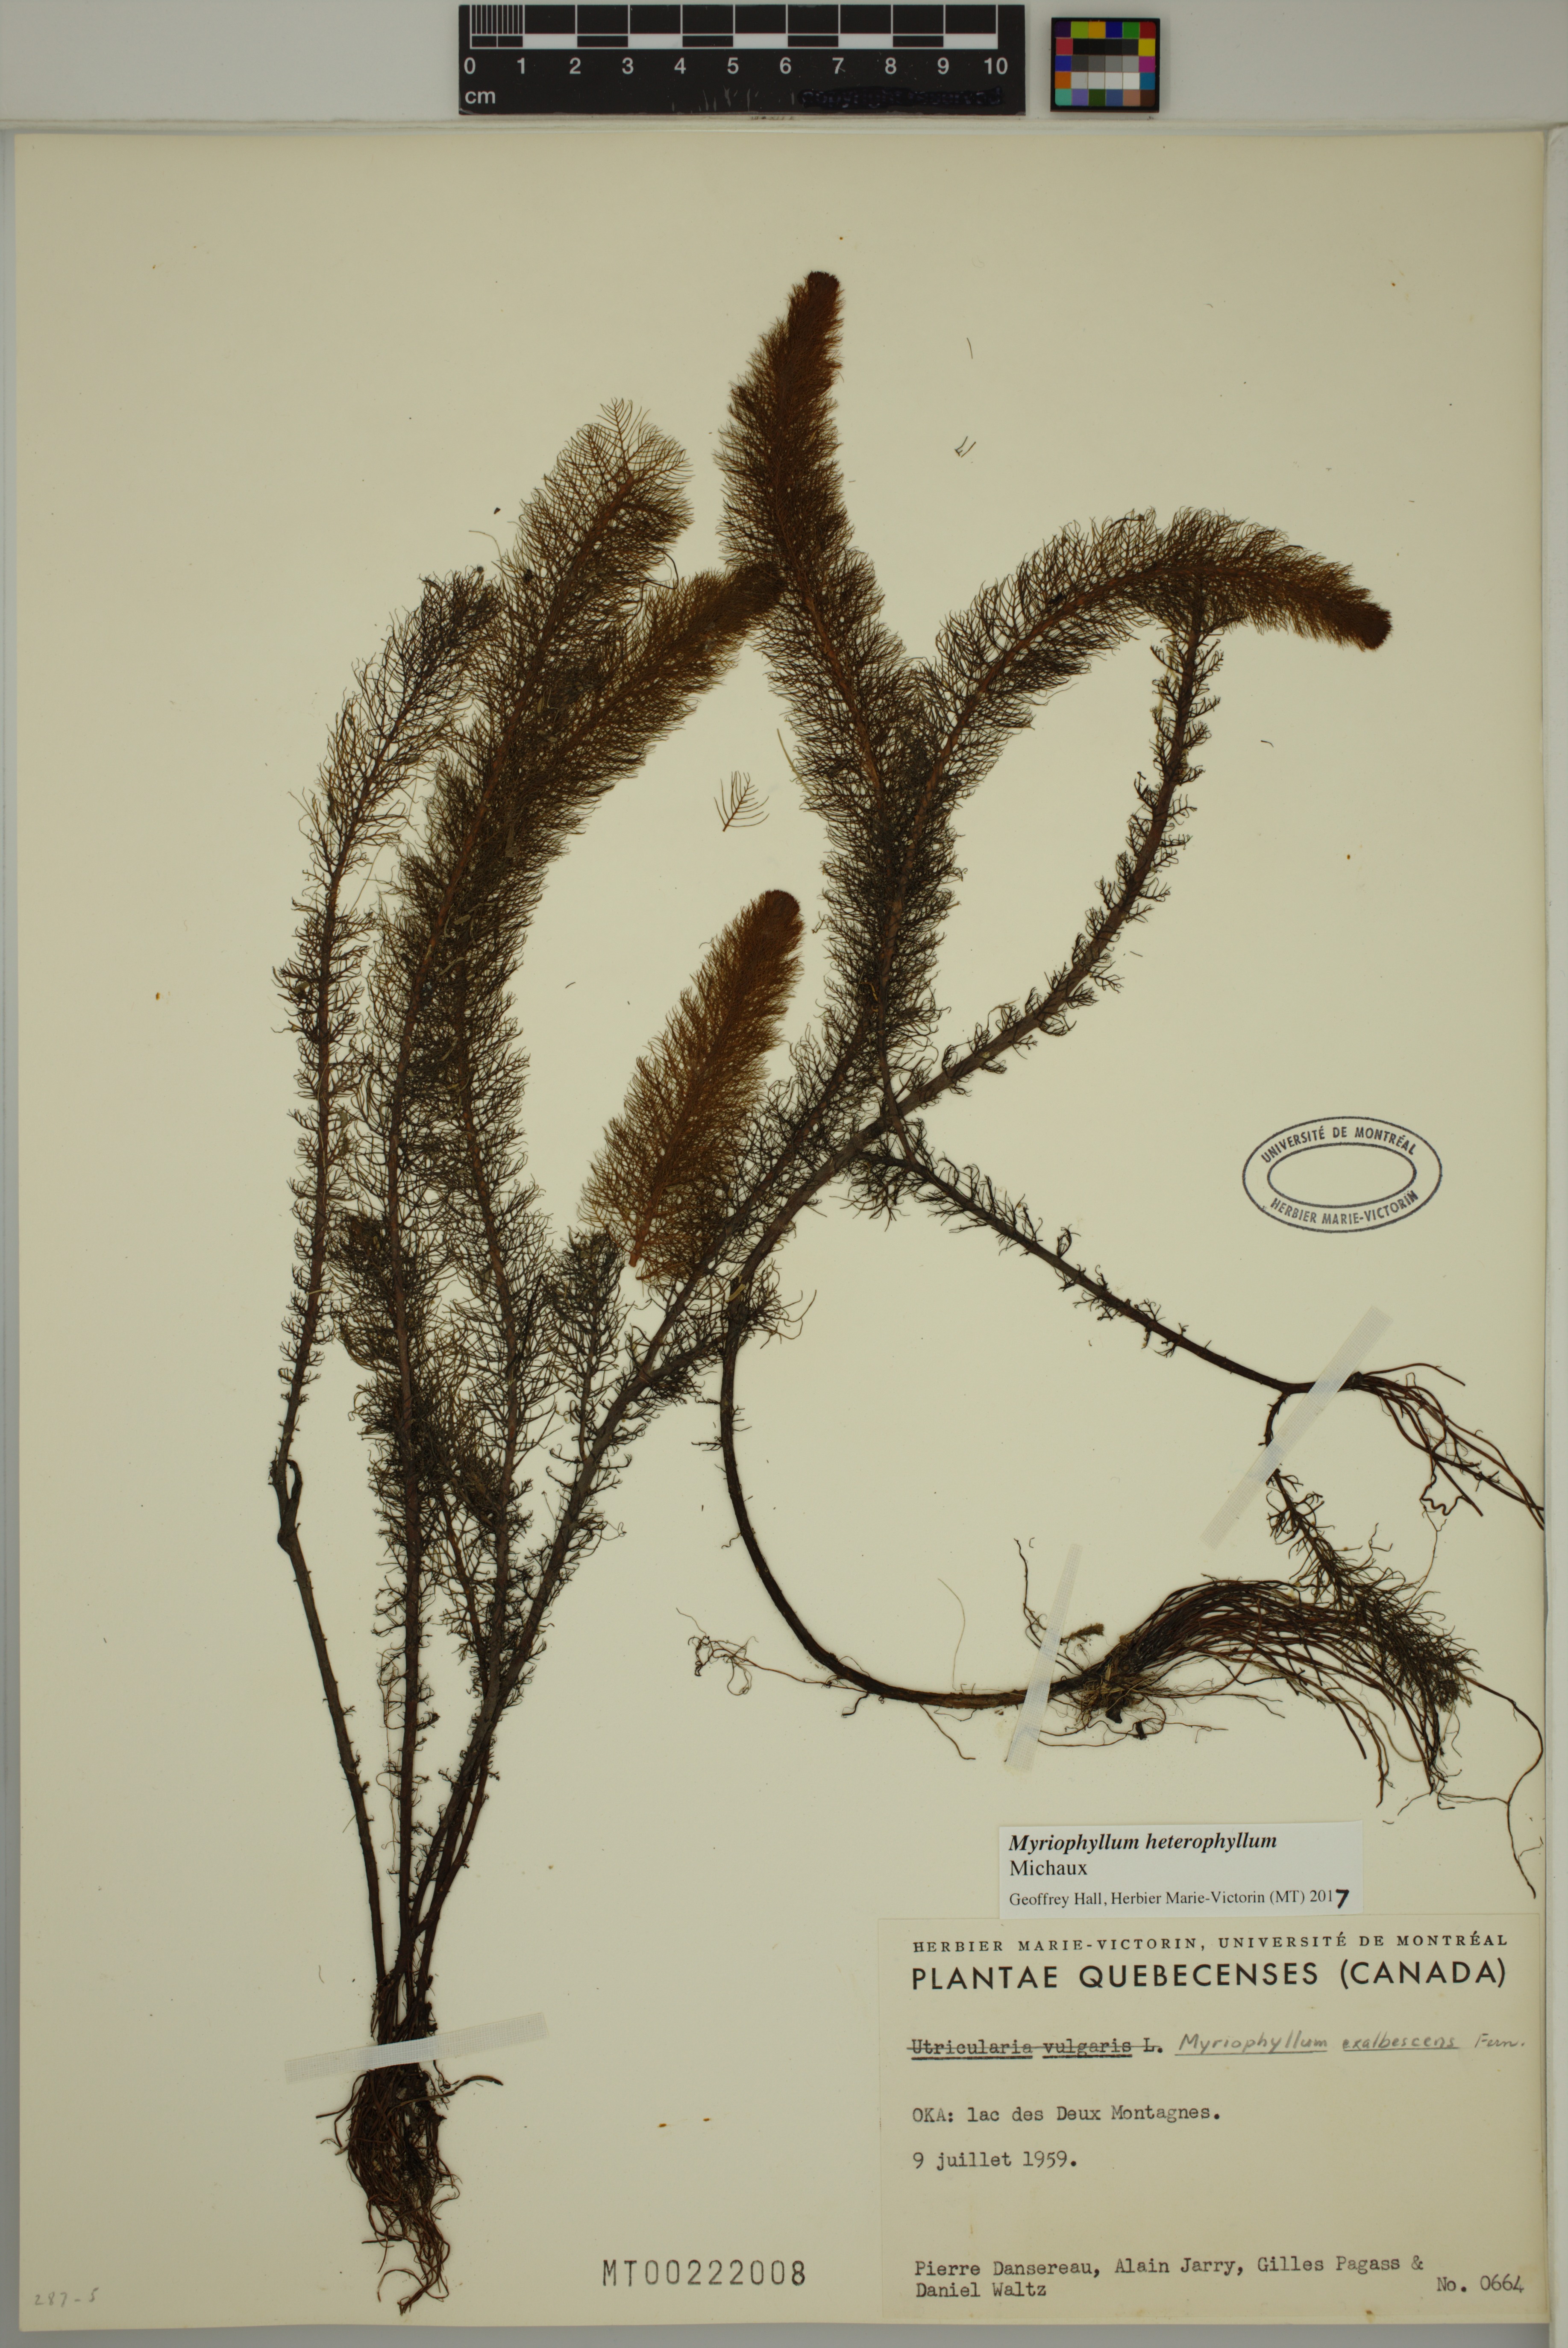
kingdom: Plantae
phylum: Tracheophyta
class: Magnoliopsida
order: Saxifragales
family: Haloragaceae
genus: Myriophyllum
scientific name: Myriophyllum heterophyllum
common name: Variable watermilfoil
